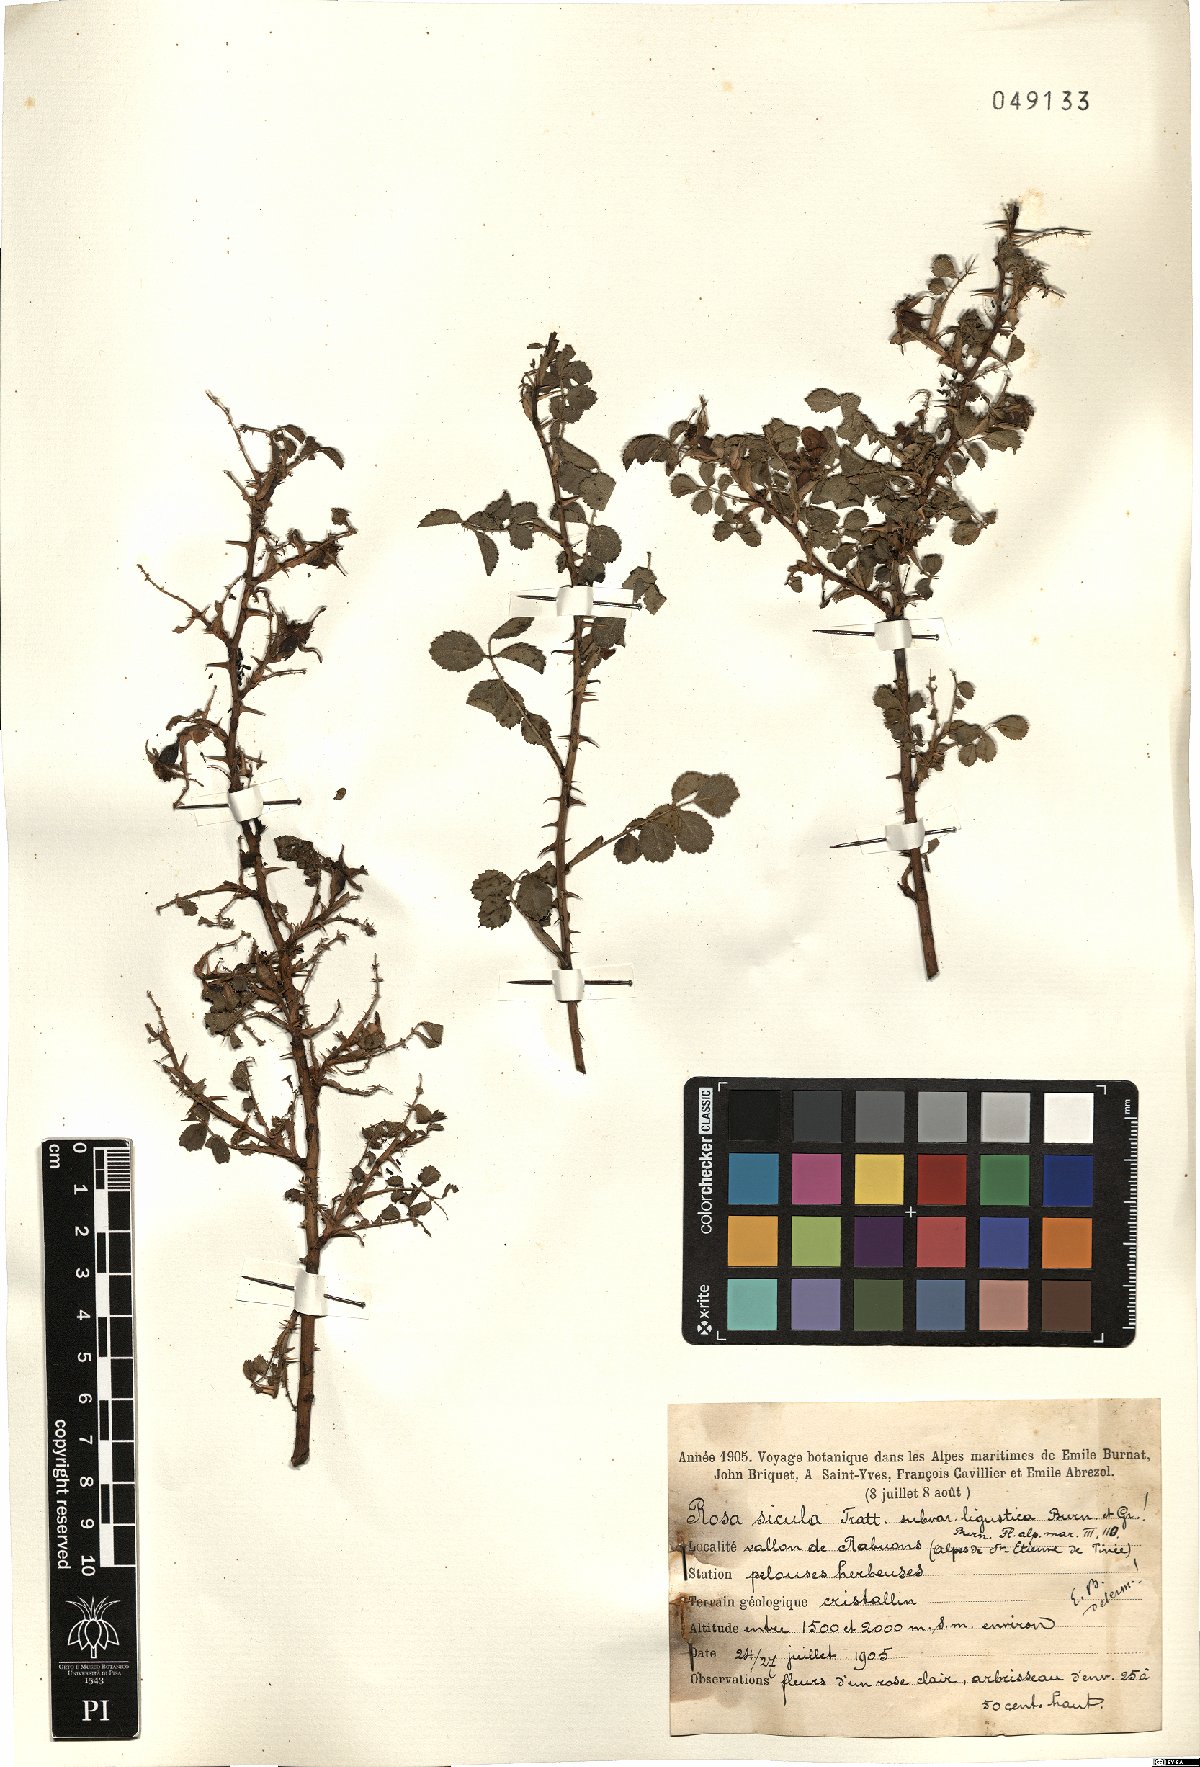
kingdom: Plantae
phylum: Tracheophyta
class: Magnoliopsida
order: Rosales
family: Rosaceae
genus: Rosa
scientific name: Rosa serafinii
